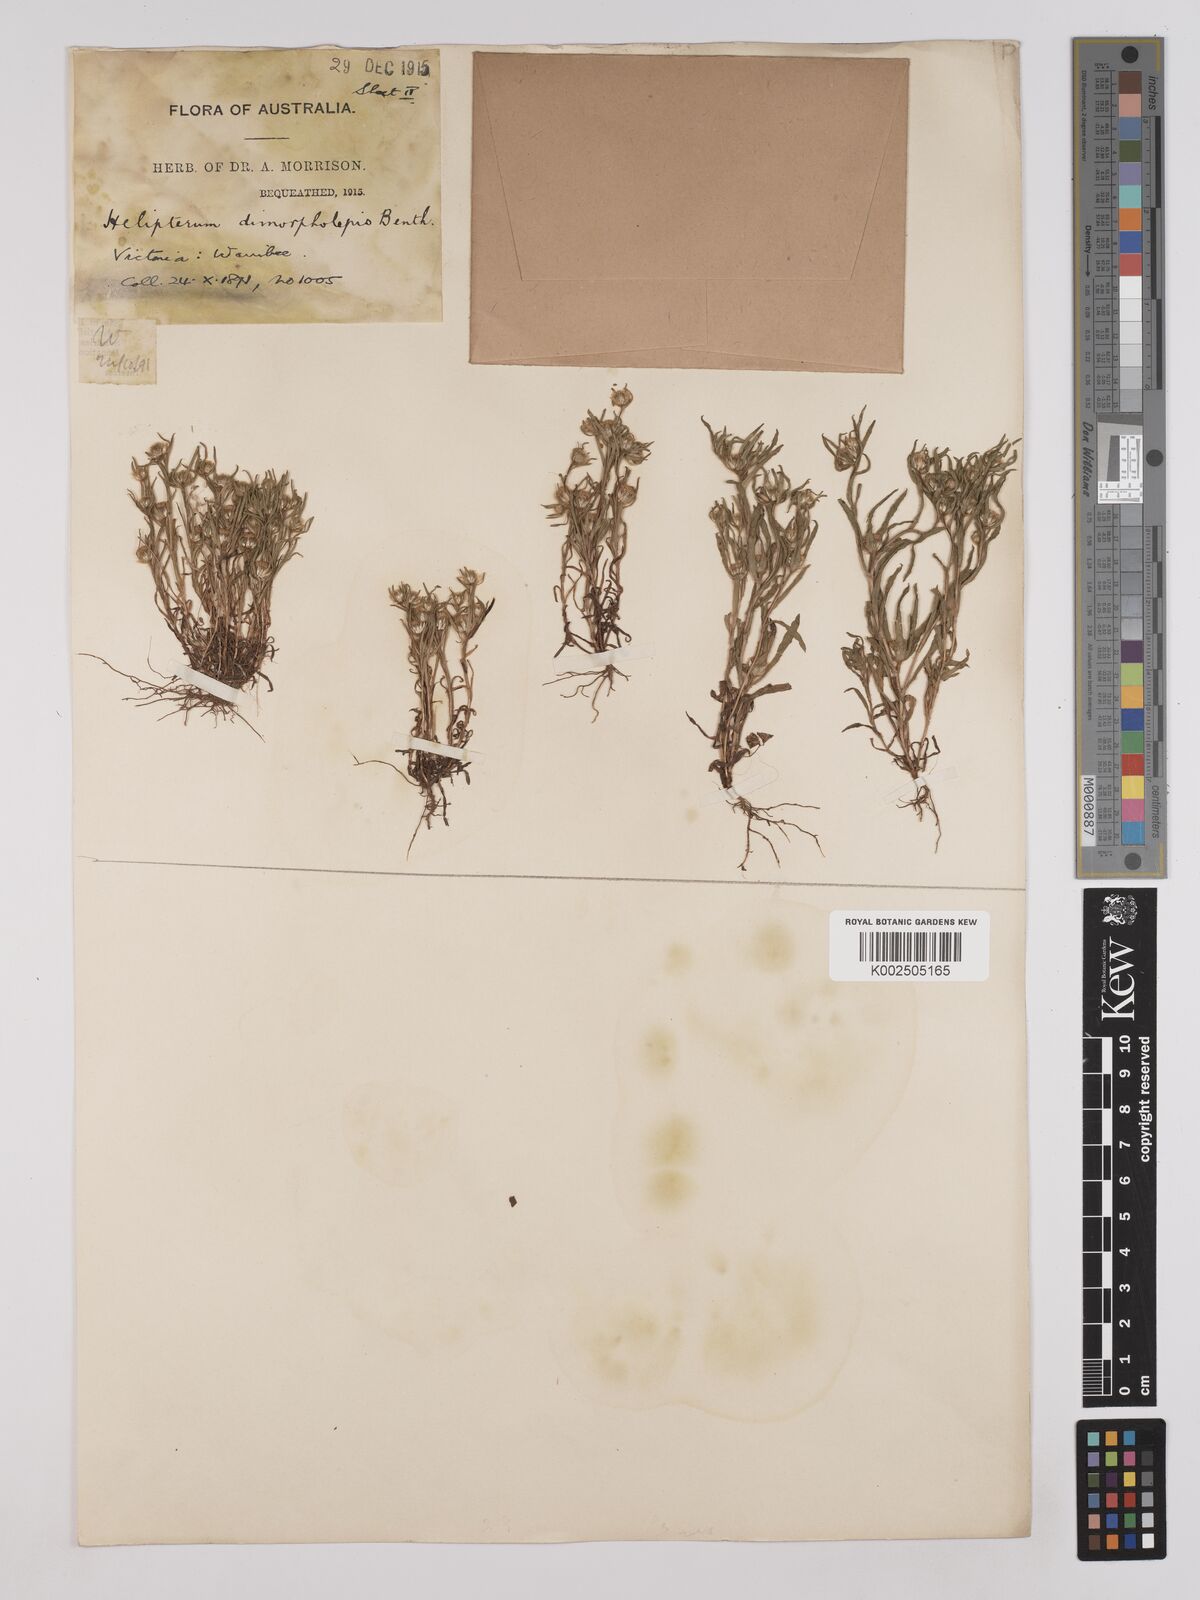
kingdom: Plantae
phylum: Tracheophyta
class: Magnoliopsida
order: Asterales
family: Asteraceae
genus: Triptilodiscus
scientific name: Triptilodiscus pygmaeus
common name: Common sunray
